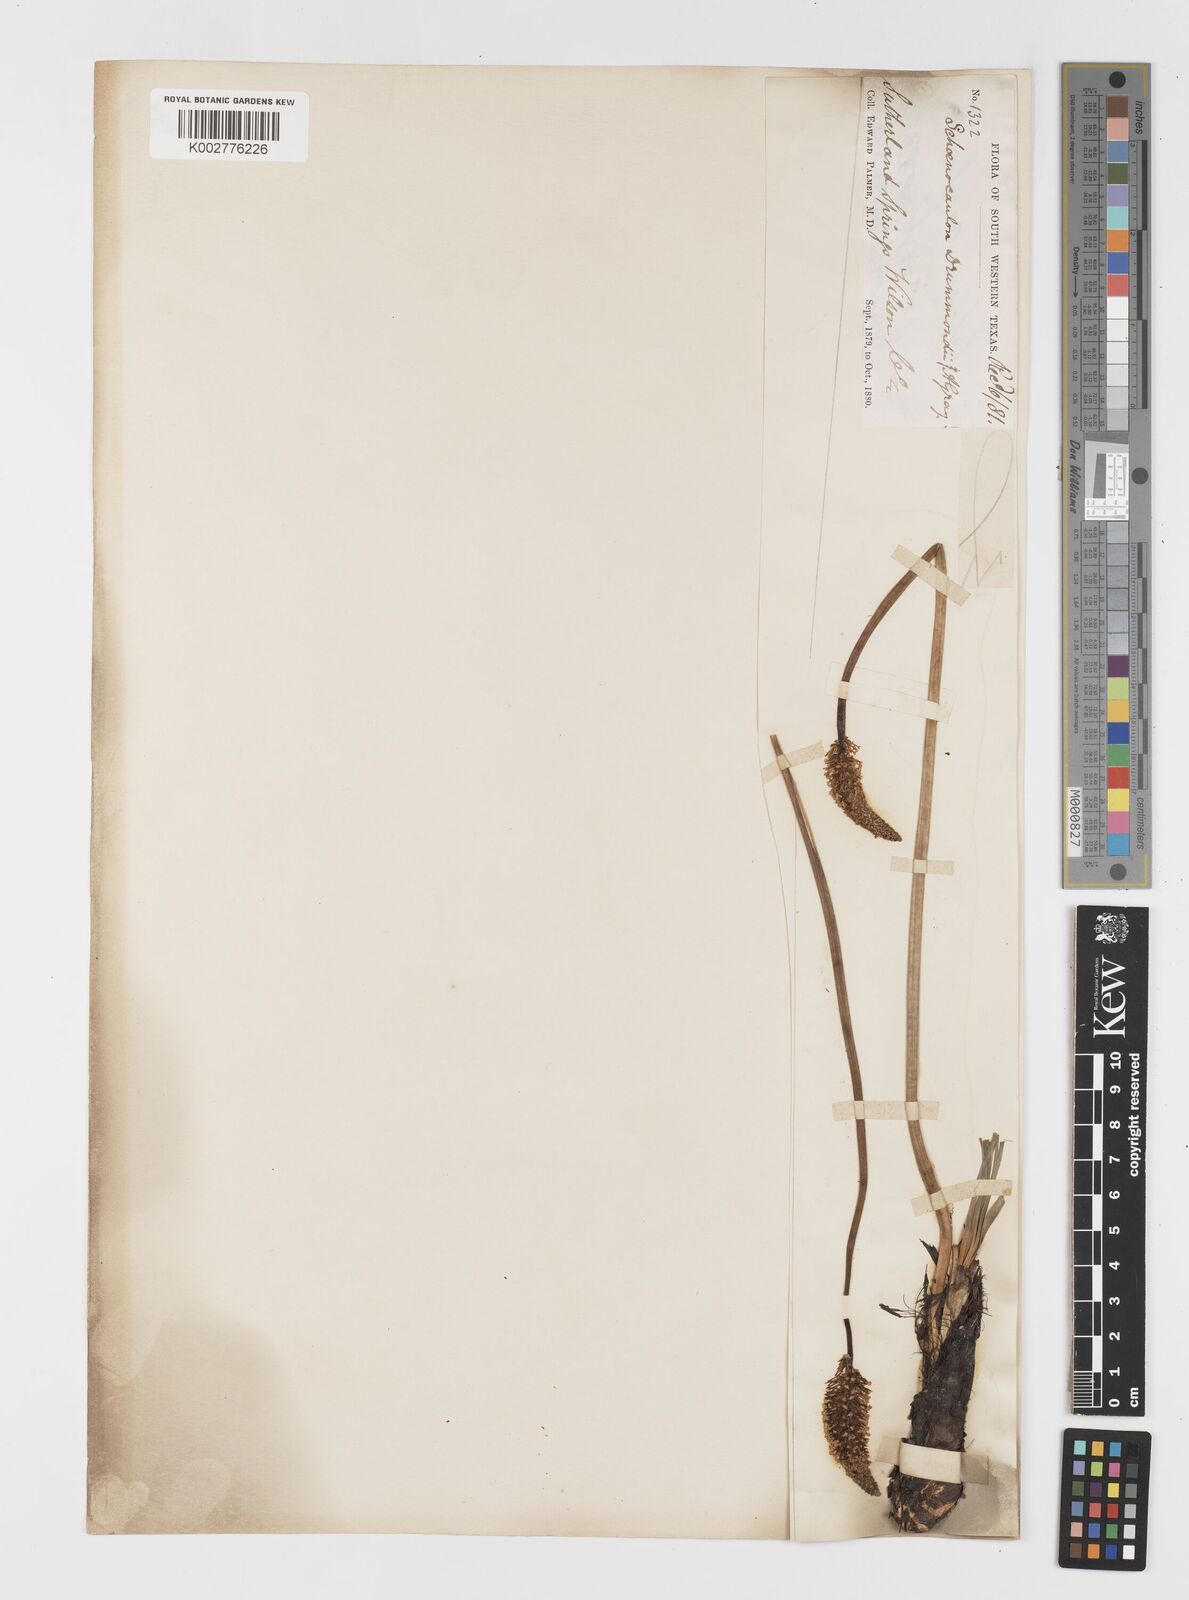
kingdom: Plantae
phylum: Tracheophyta
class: Liliopsida
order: Liliales
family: Melanthiaceae
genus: Schoenocaulon
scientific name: Schoenocaulon texanum
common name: Texas feather-shank
